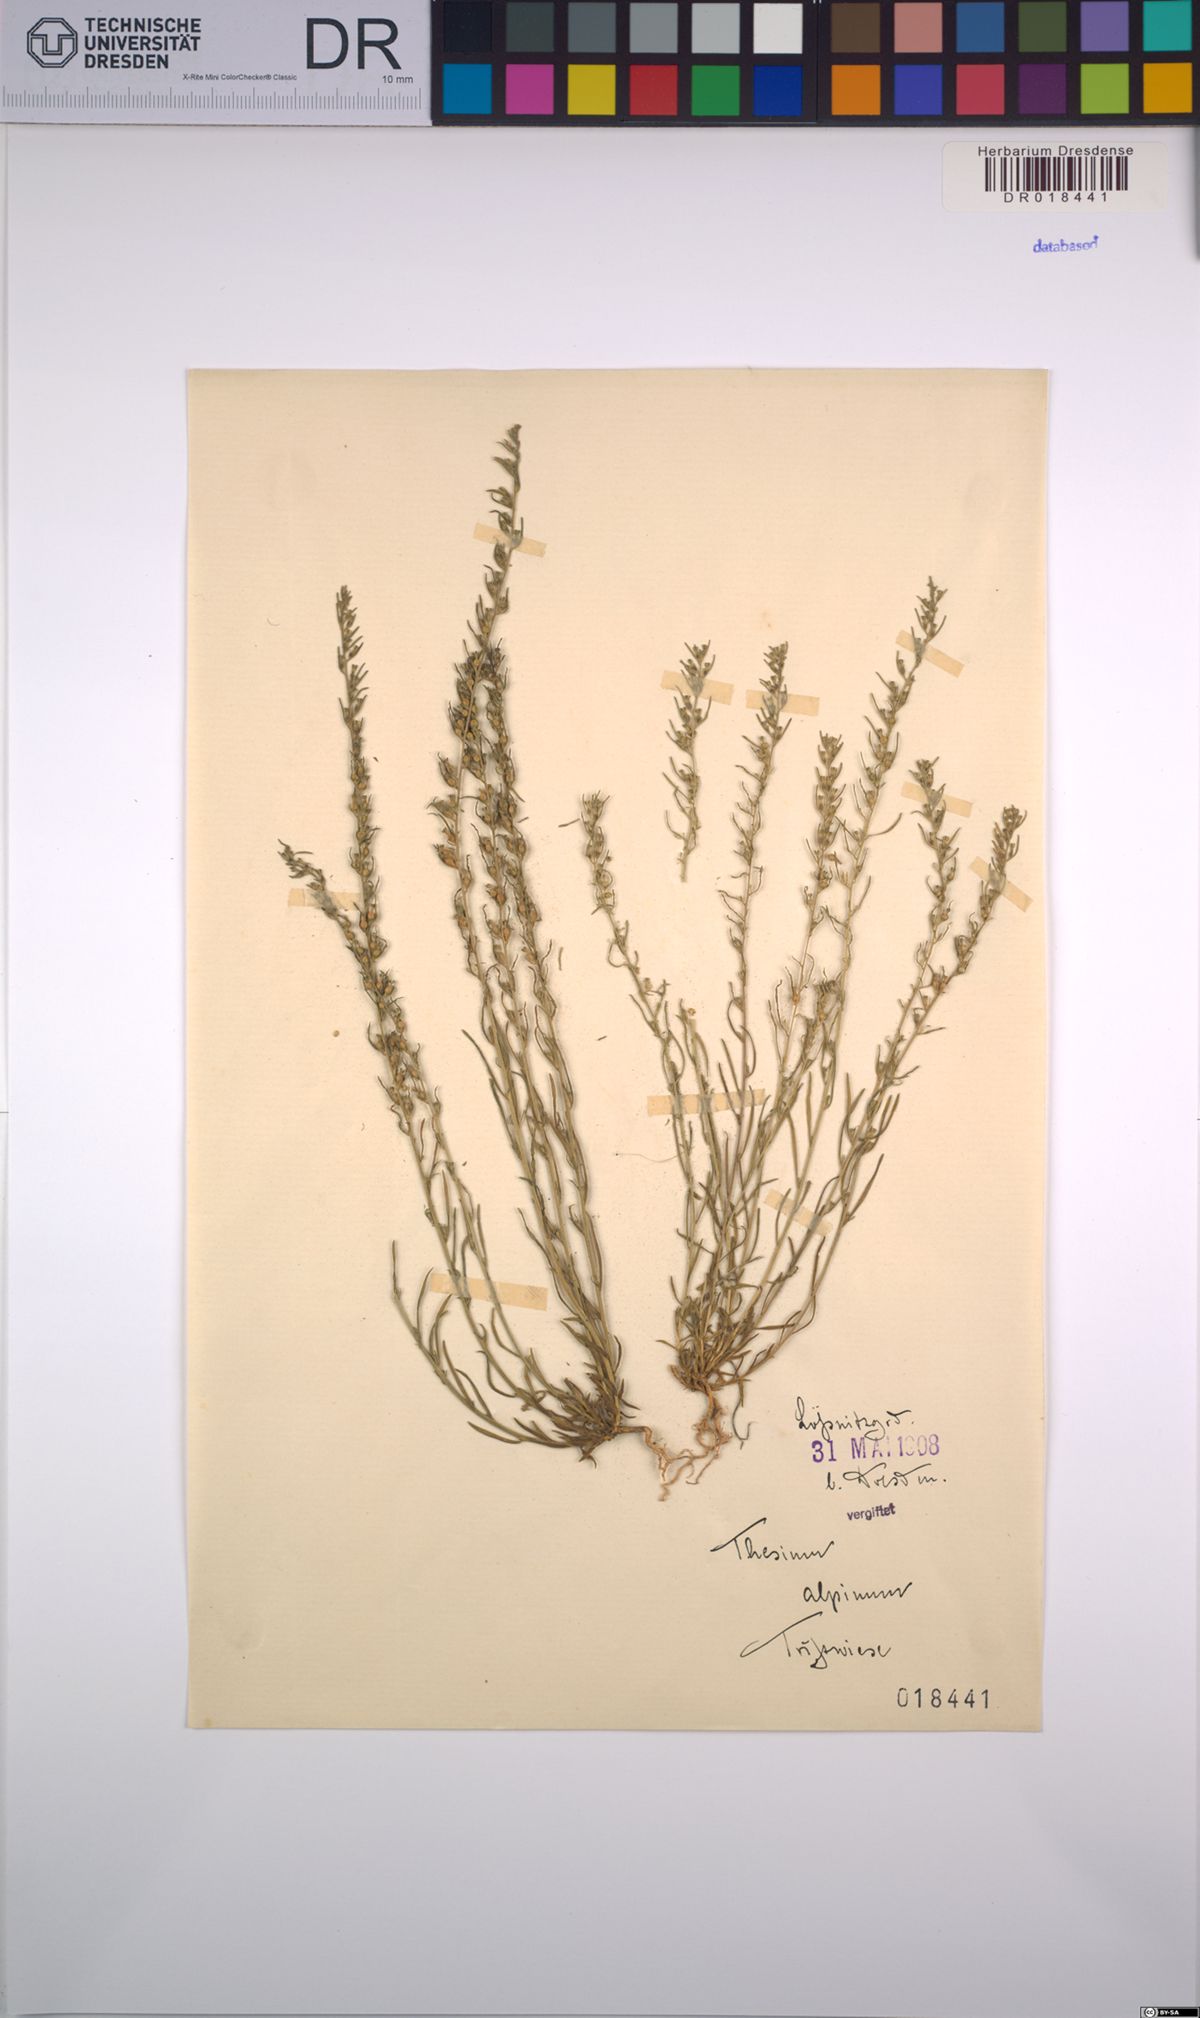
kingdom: Plantae
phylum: Tracheophyta
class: Magnoliopsida
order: Santalales
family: Thesiaceae
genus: Thesium
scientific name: Thesium alpinum
